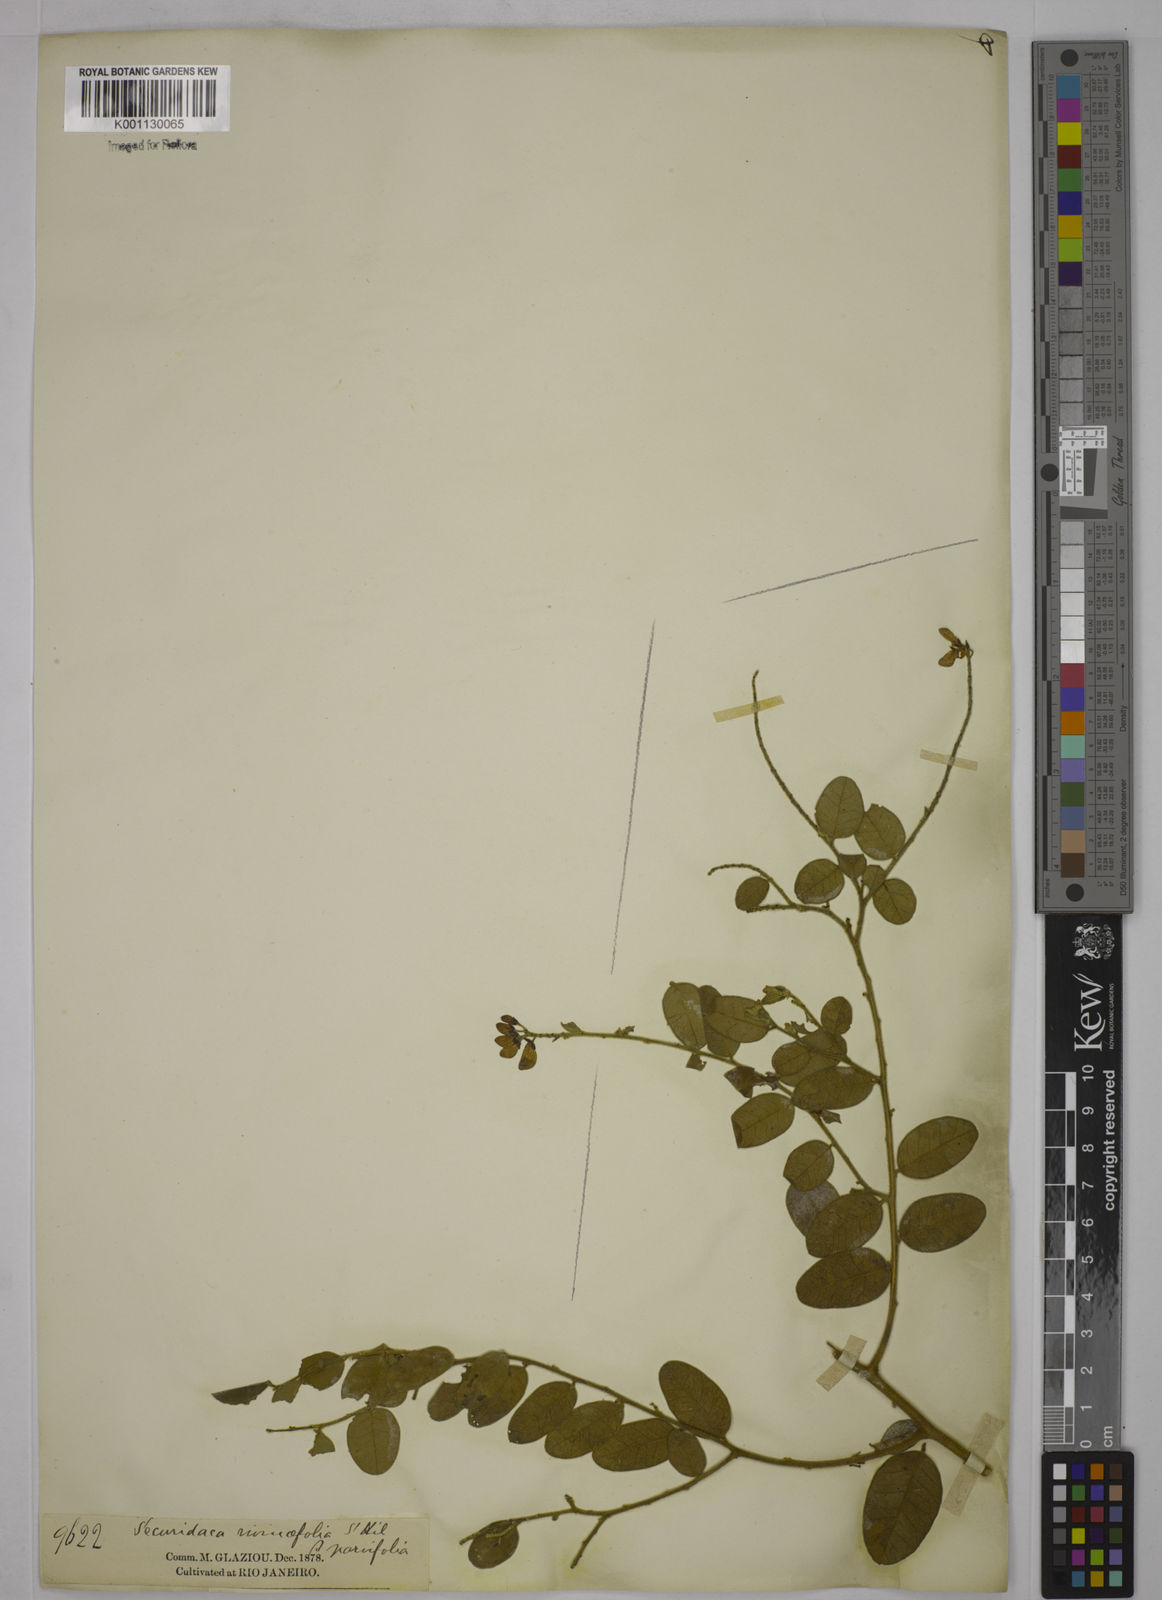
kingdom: Plantae
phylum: Tracheophyta
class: Magnoliopsida
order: Fabales
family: Polygalaceae
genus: Securidaca
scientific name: Securidaca rivinifolia
